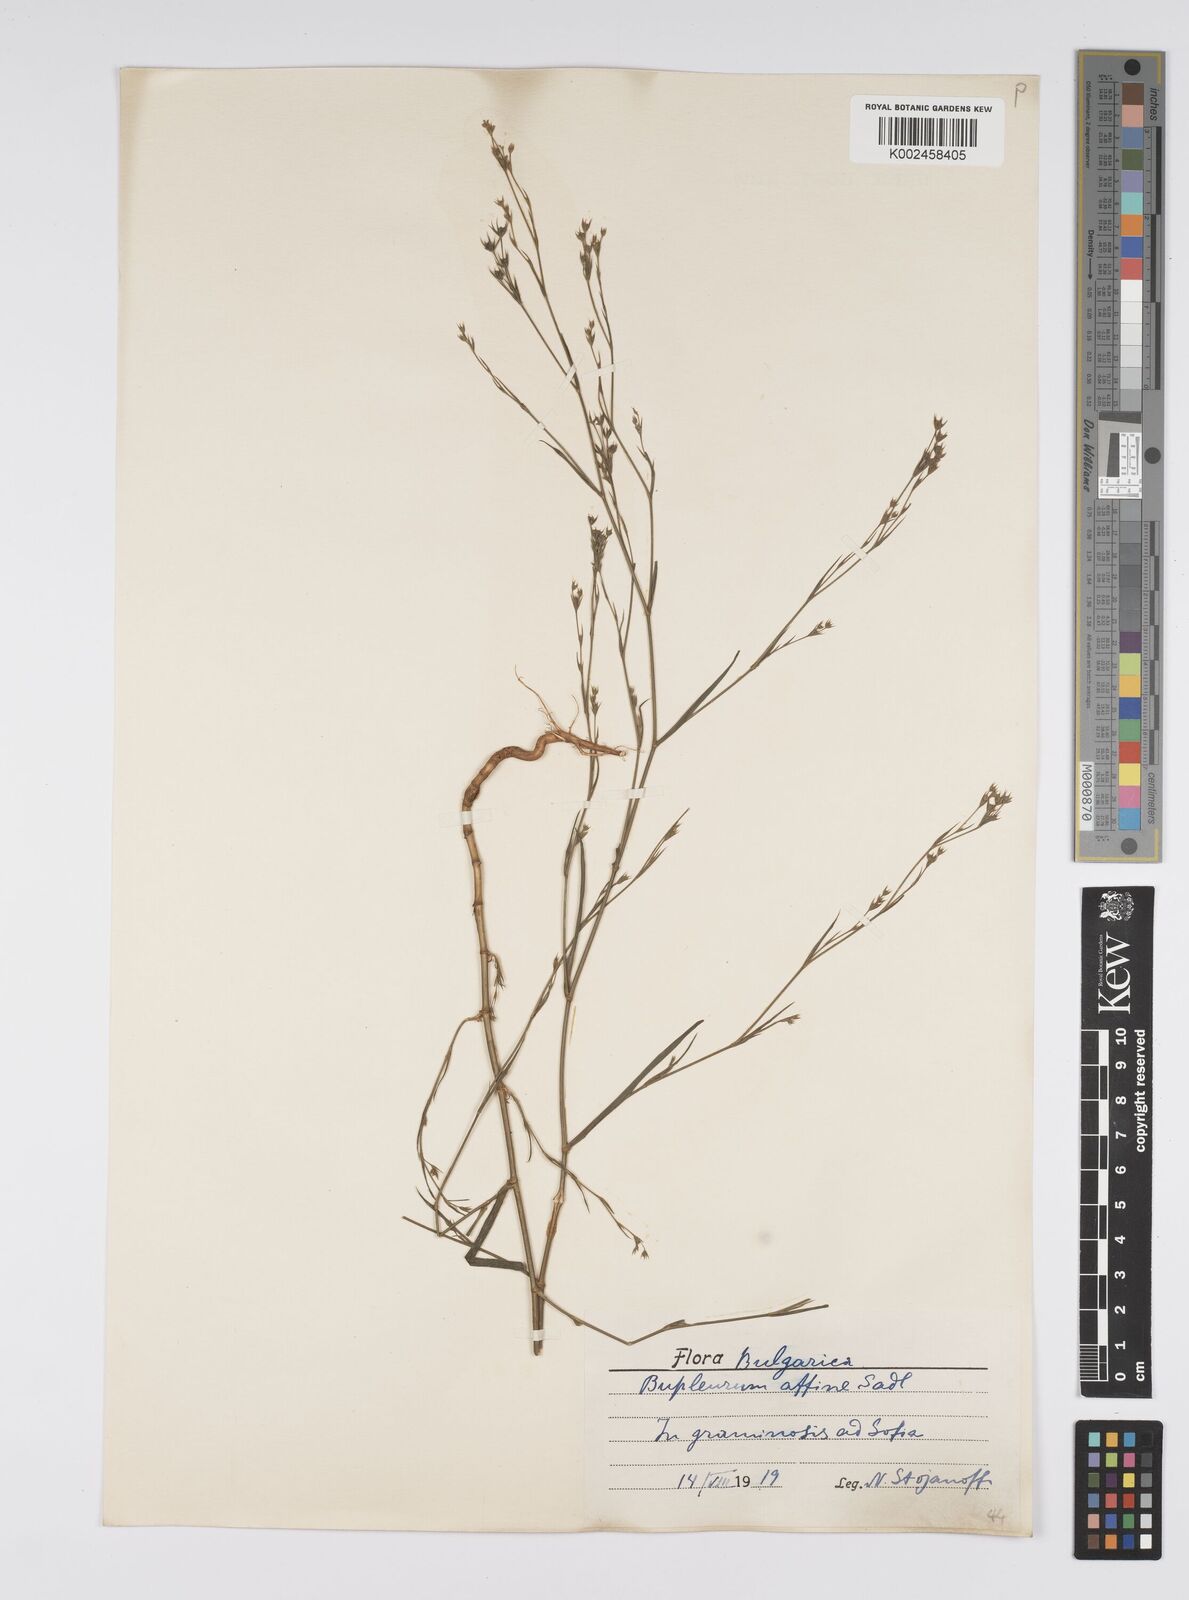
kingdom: Plantae
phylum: Tracheophyta
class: Magnoliopsida
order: Apiales
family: Apiaceae
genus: Bupleurum
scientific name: Bupleurum affine
